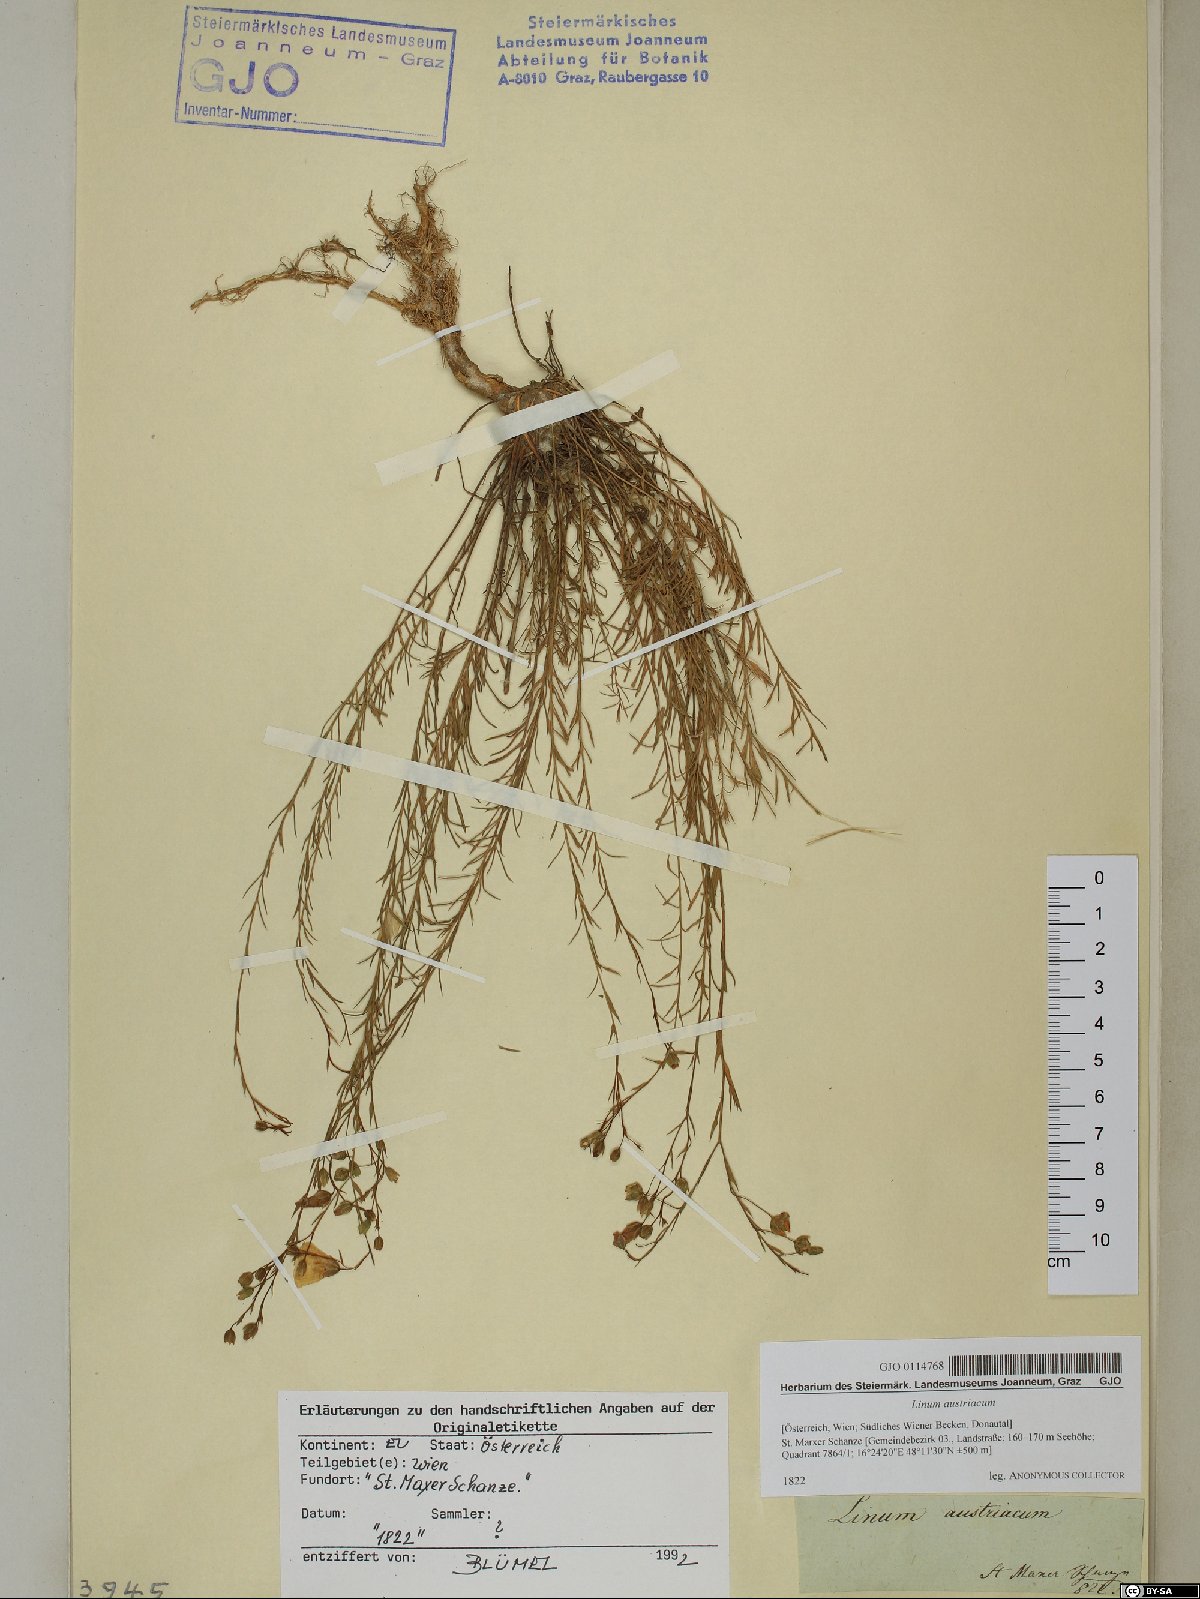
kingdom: Plantae
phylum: Tracheophyta
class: Magnoliopsida
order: Malpighiales
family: Linaceae
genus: Linum
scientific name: Linum austriacum
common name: Austrian flax
